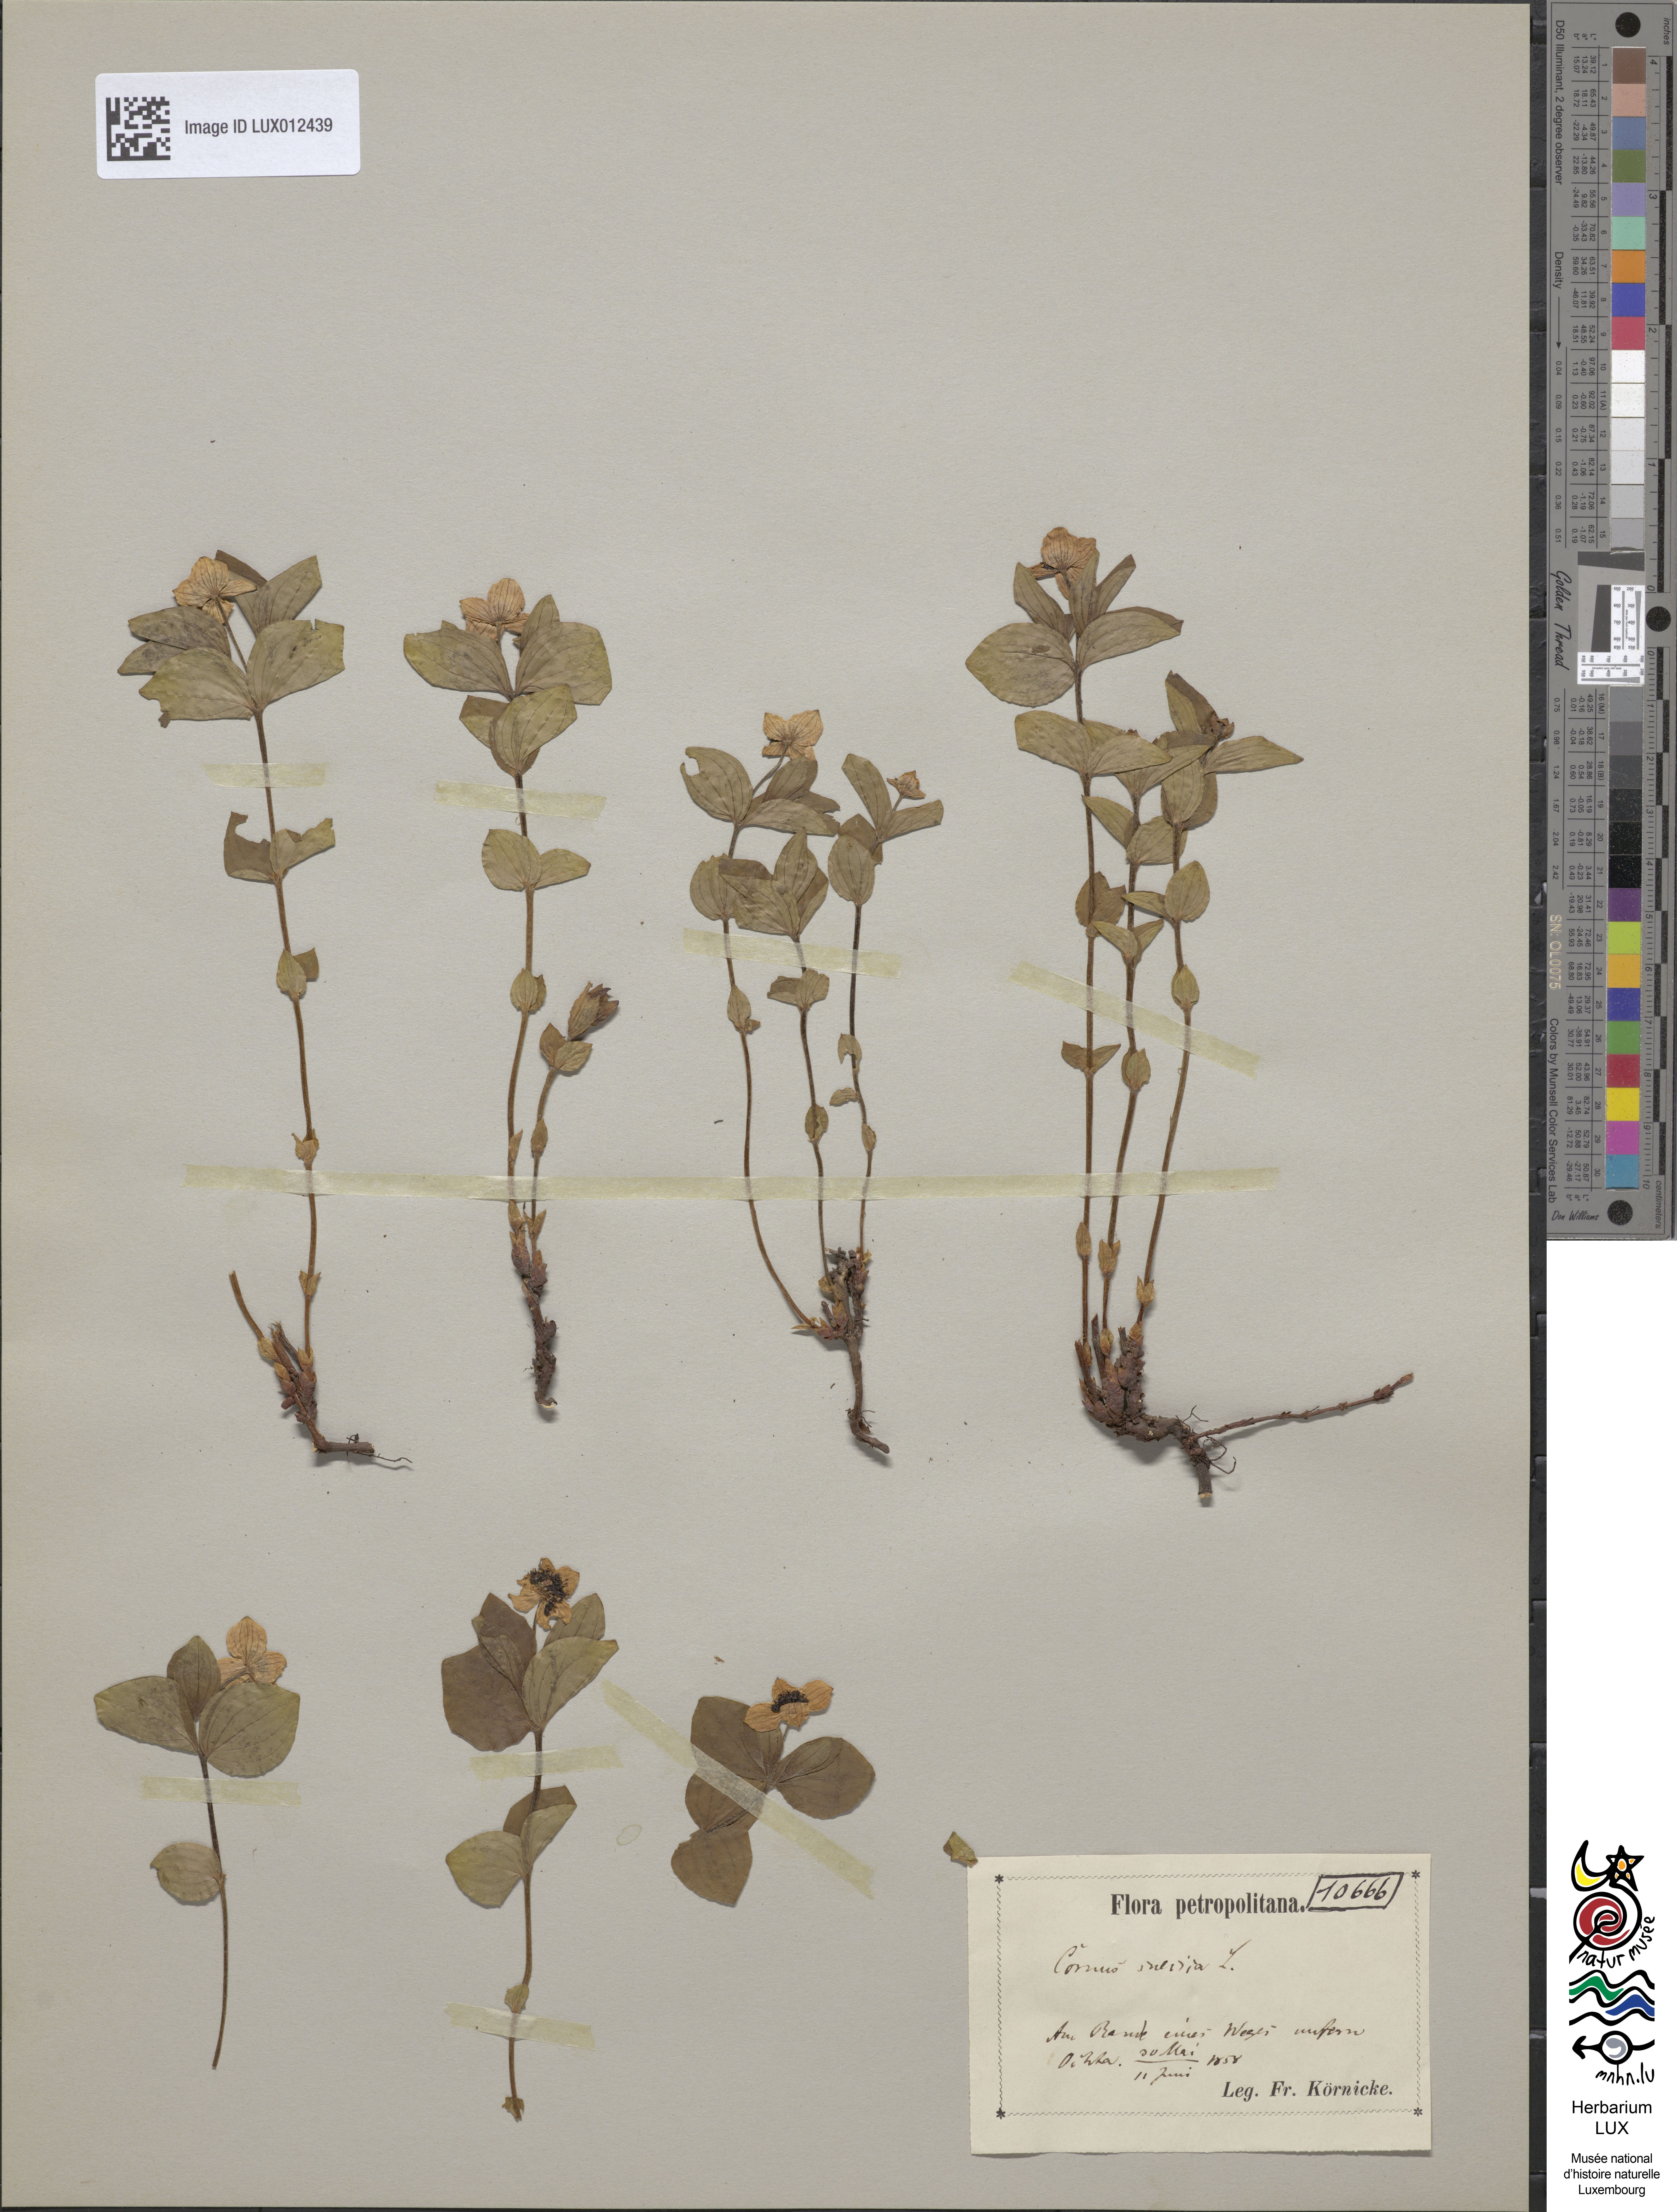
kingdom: Plantae
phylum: Tracheophyta
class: Magnoliopsida
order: Cornales
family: Cornaceae
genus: Cornus
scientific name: Cornus suecica
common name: Dwarf cornel
